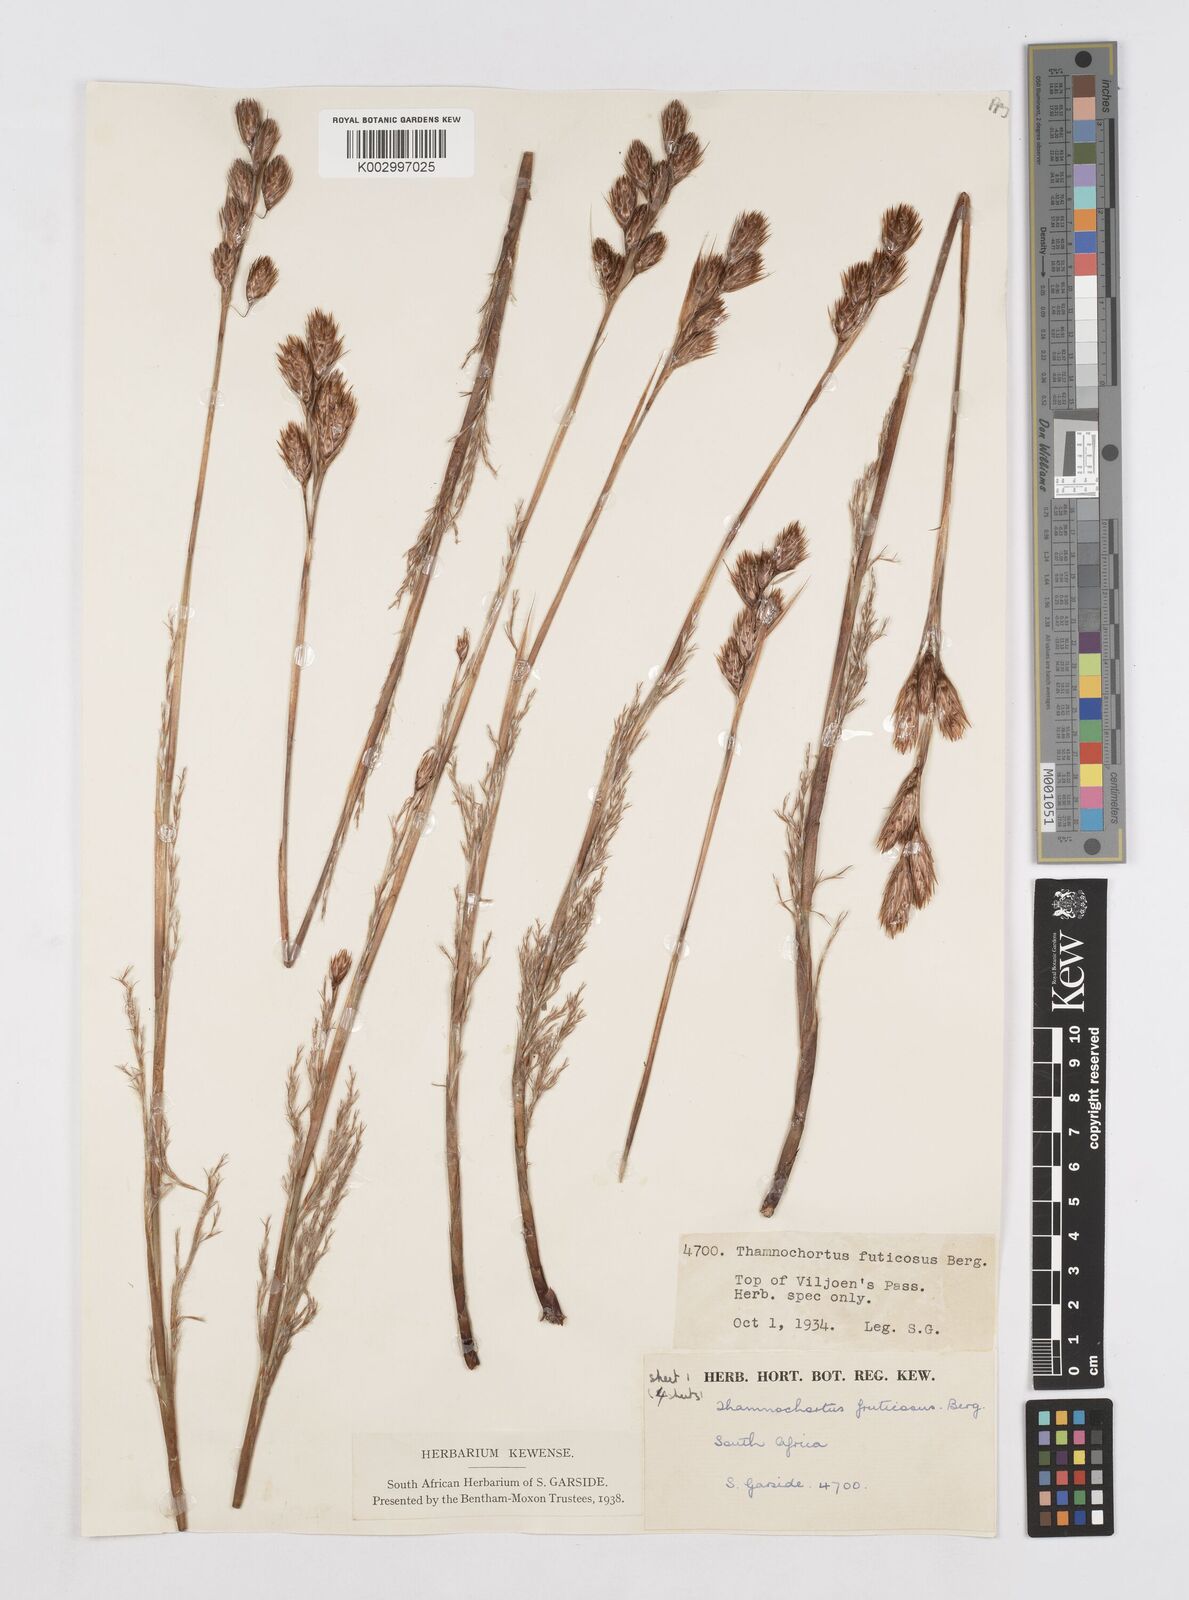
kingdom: Plantae
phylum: Tracheophyta
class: Liliopsida
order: Poales
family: Restionaceae
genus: Thamnochortus
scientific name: Thamnochortus fruticosus
